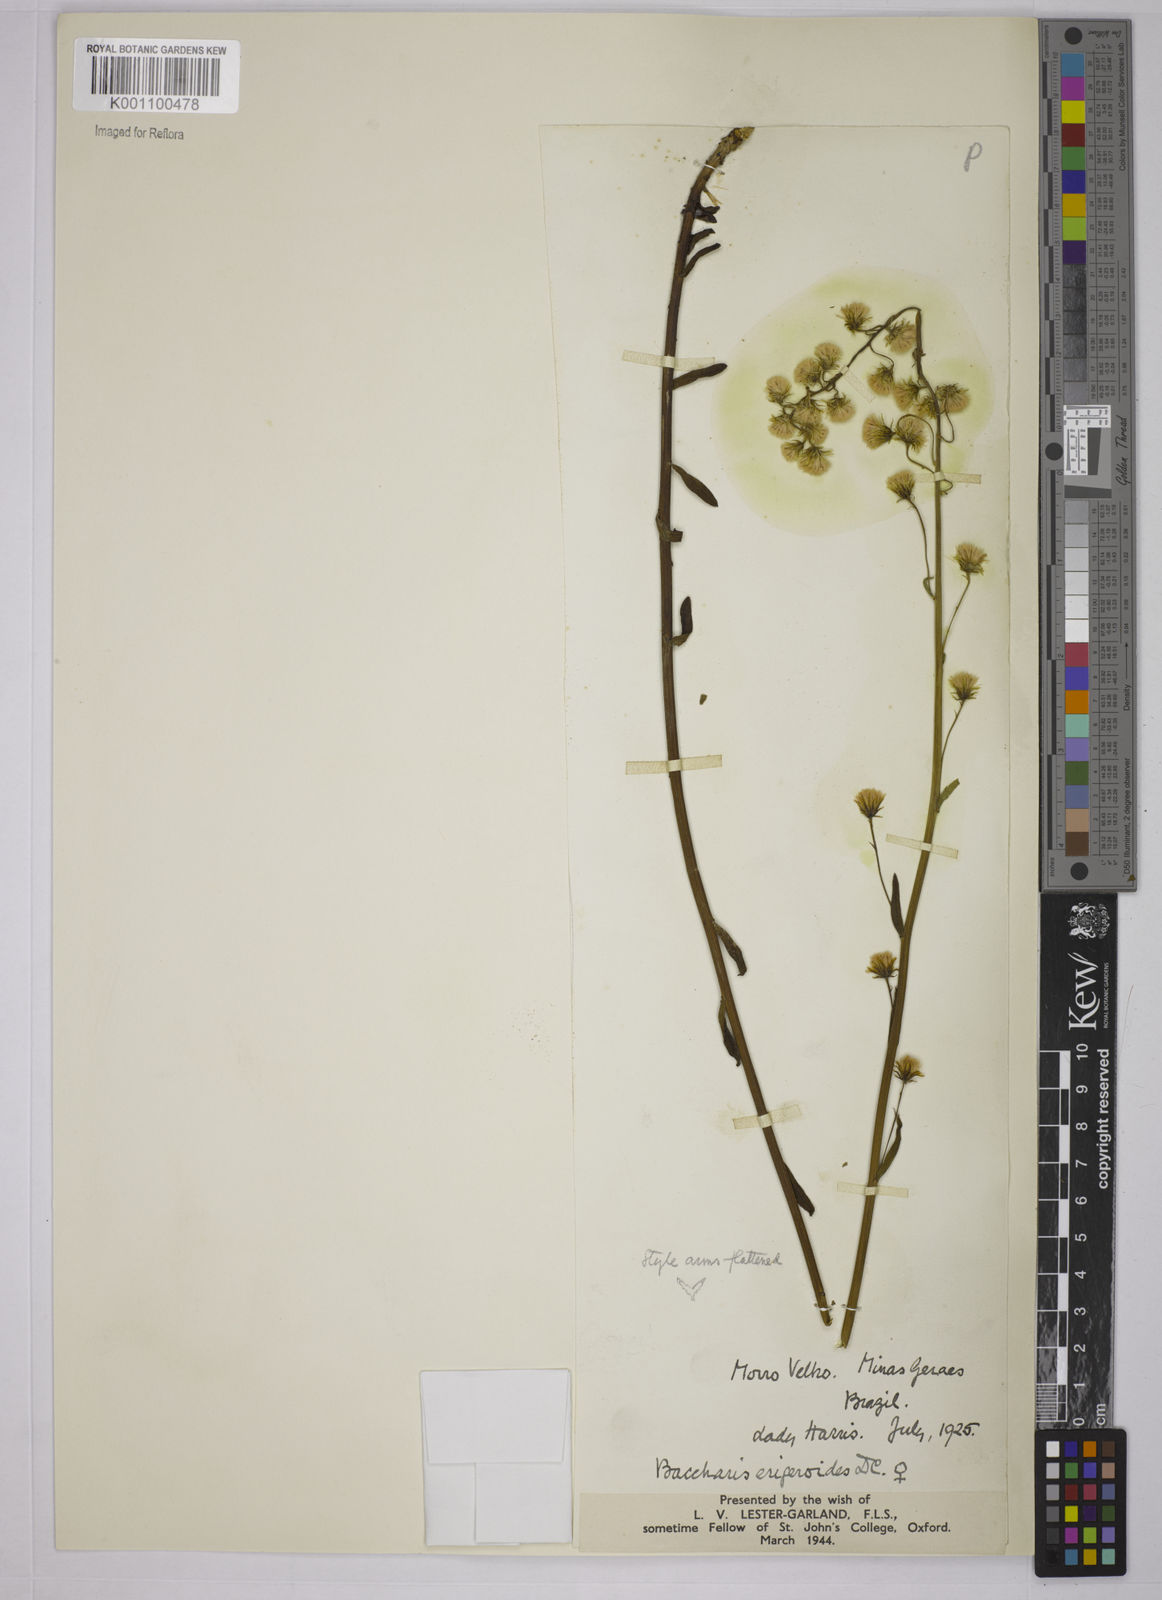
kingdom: Plantae
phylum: Tracheophyta
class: Magnoliopsida
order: Asterales
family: Asteraceae
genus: Baccharis
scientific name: Baccharis erigeroides
